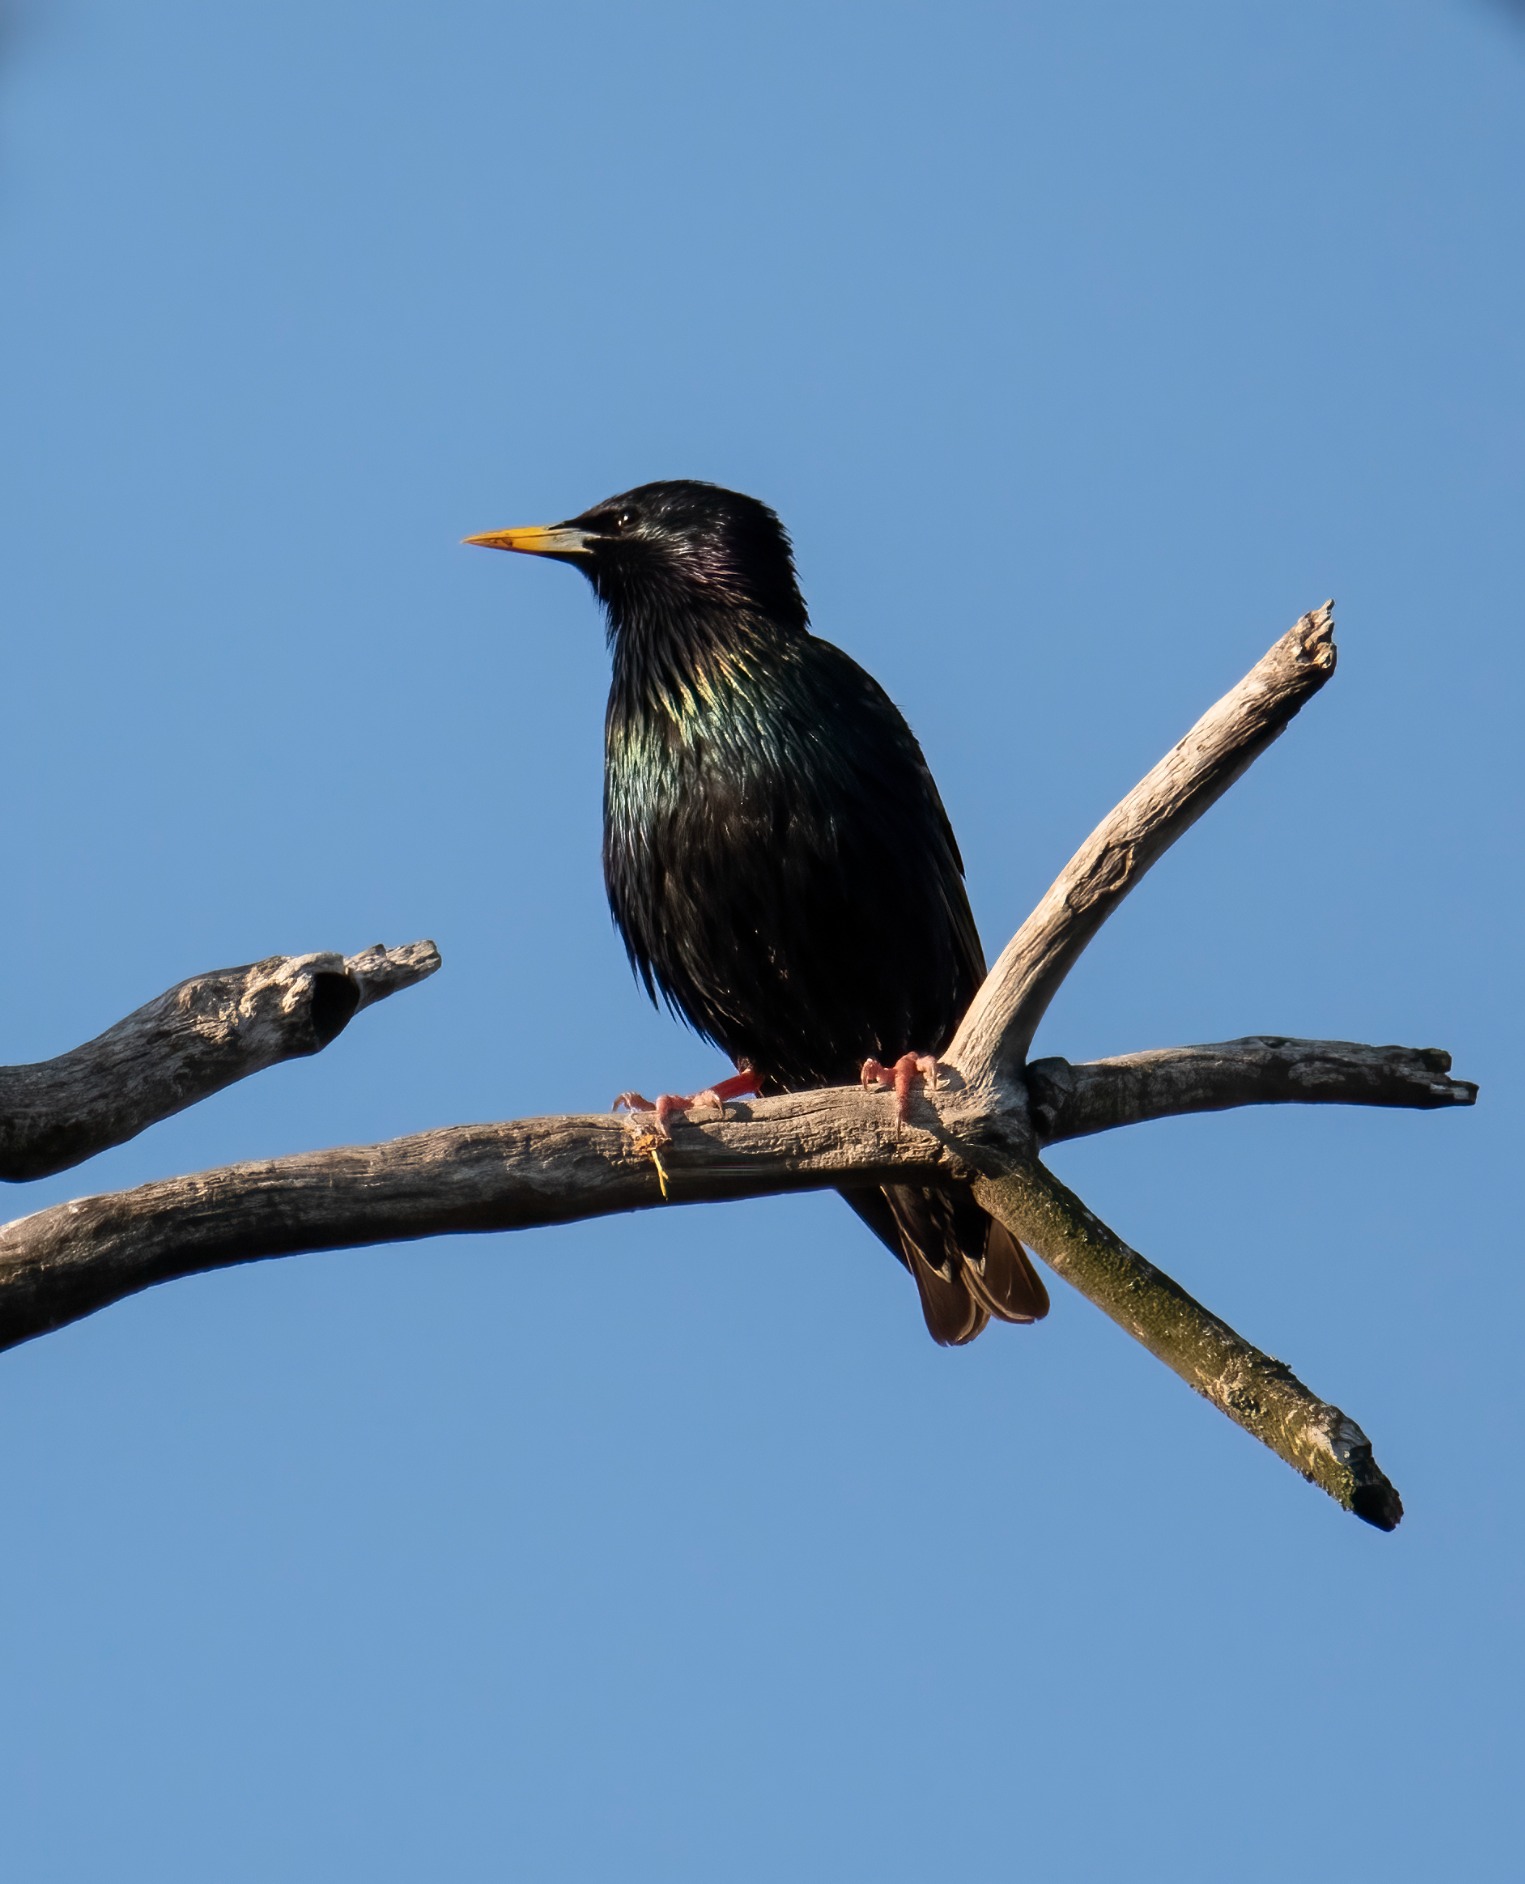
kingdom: Animalia
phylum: Chordata
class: Aves
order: Passeriformes
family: Sturnidae
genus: Sturnus
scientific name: Sturnus vulgaris
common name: Stær
